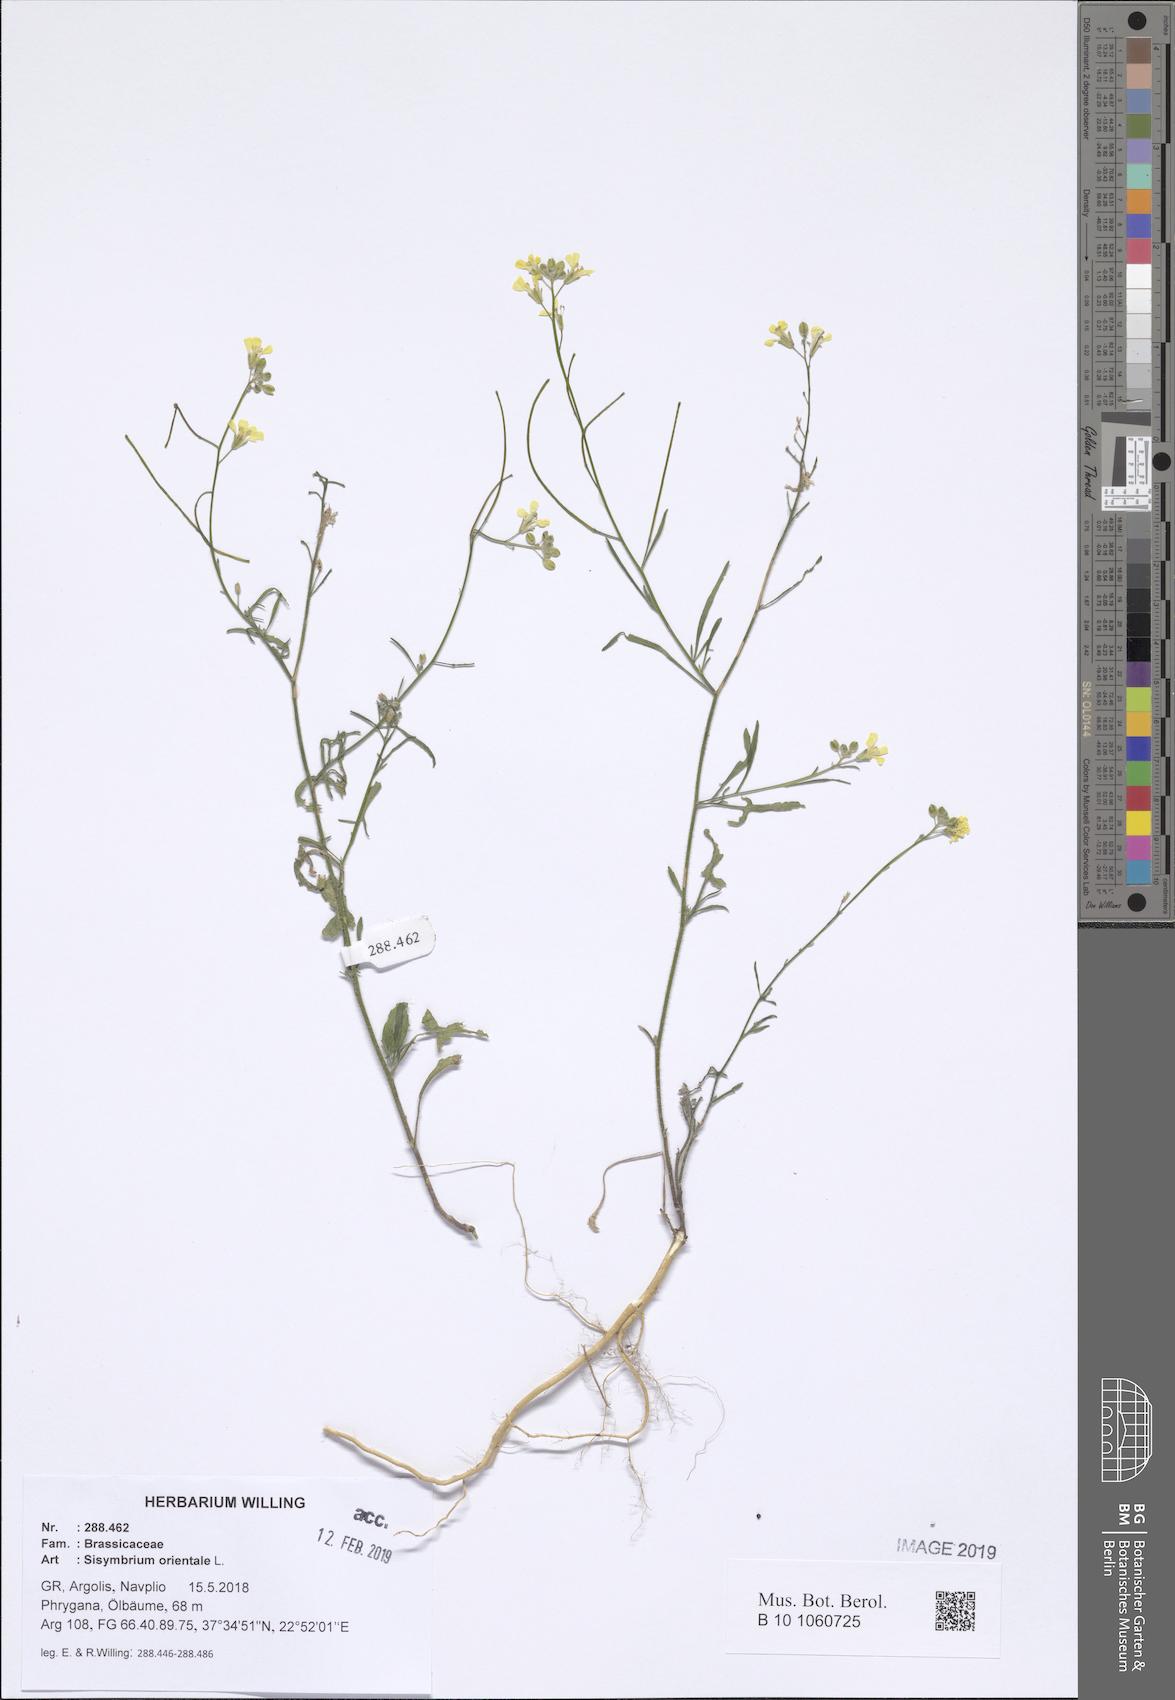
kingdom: Plantae
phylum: Tracheophyta
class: Magnoliopsida
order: Brassicales
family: Brassicaceae
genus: Sisymbrium
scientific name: Sisymbrium orientale
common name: Eastern rocket
